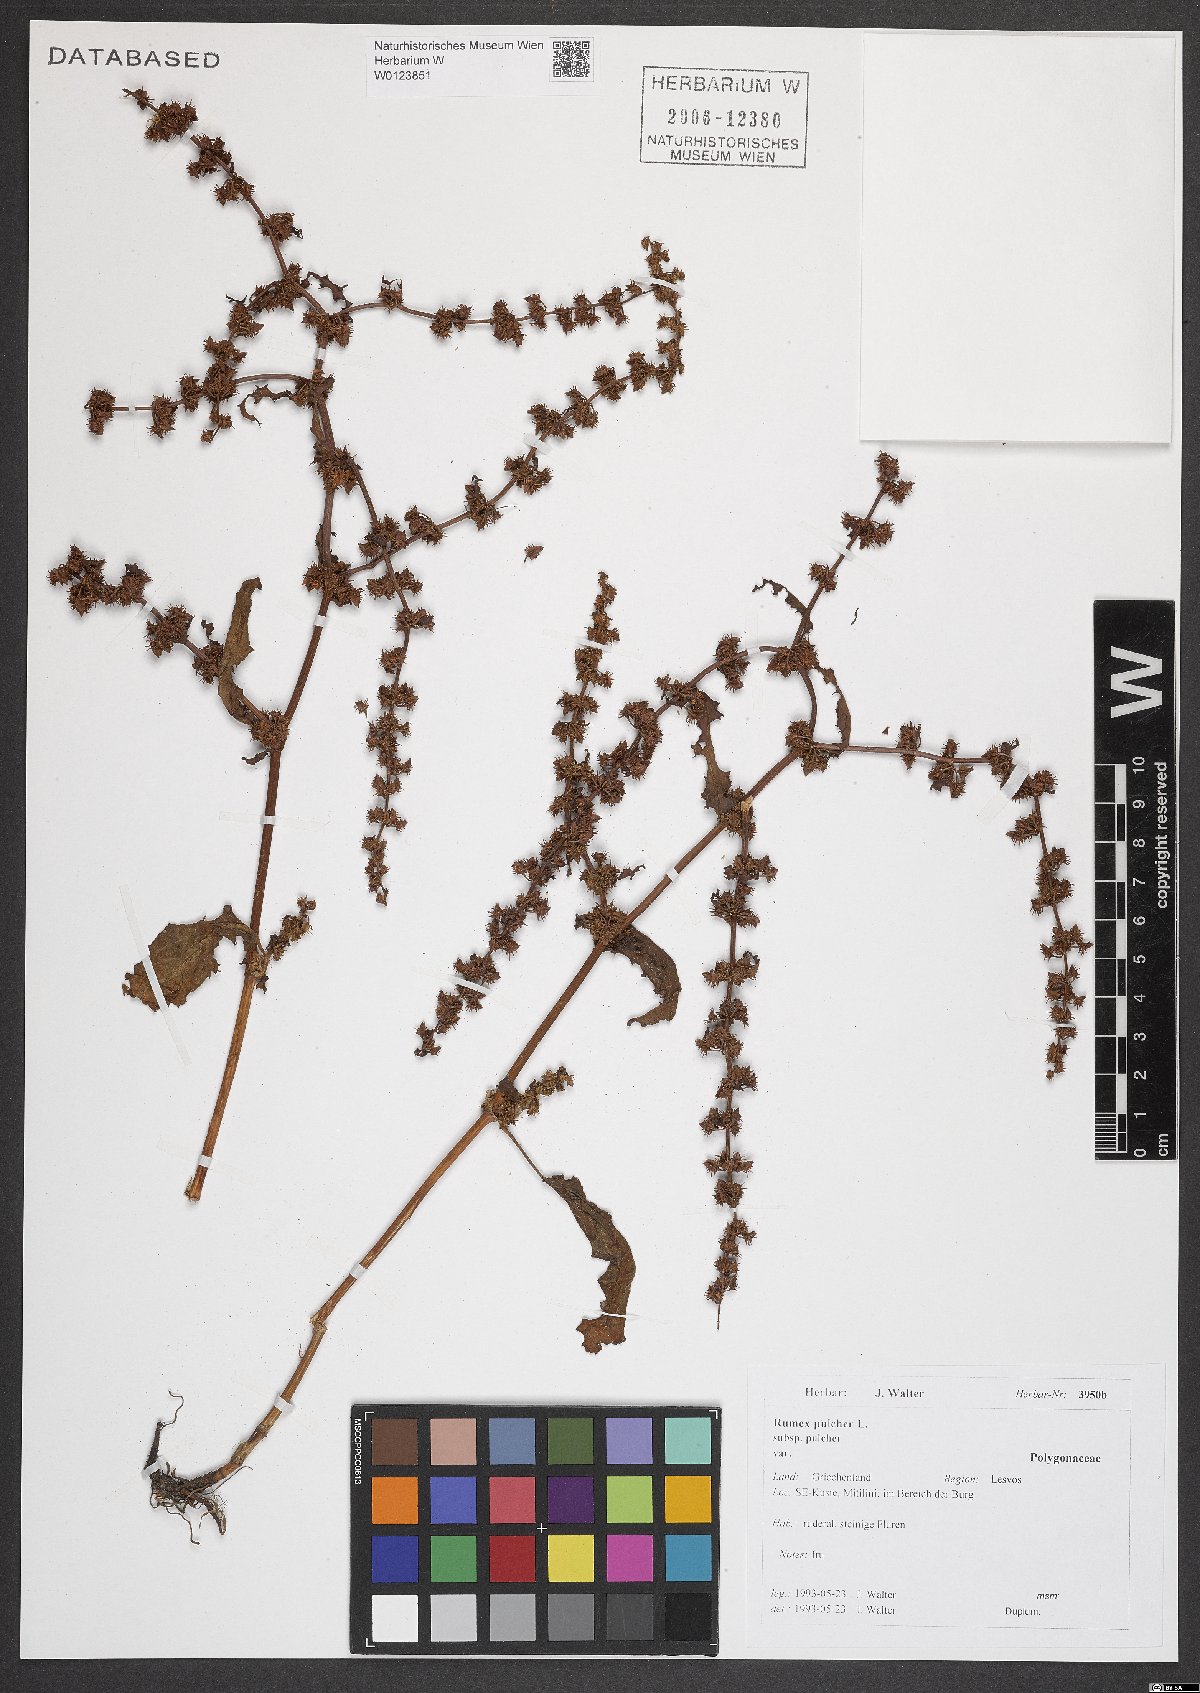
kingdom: Plantae
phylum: Tracheophyta
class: Magnoliopsida
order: Caryophyllales
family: Polygonaceae
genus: Rumex
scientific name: Rumex pulcher
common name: Fiddle dock
